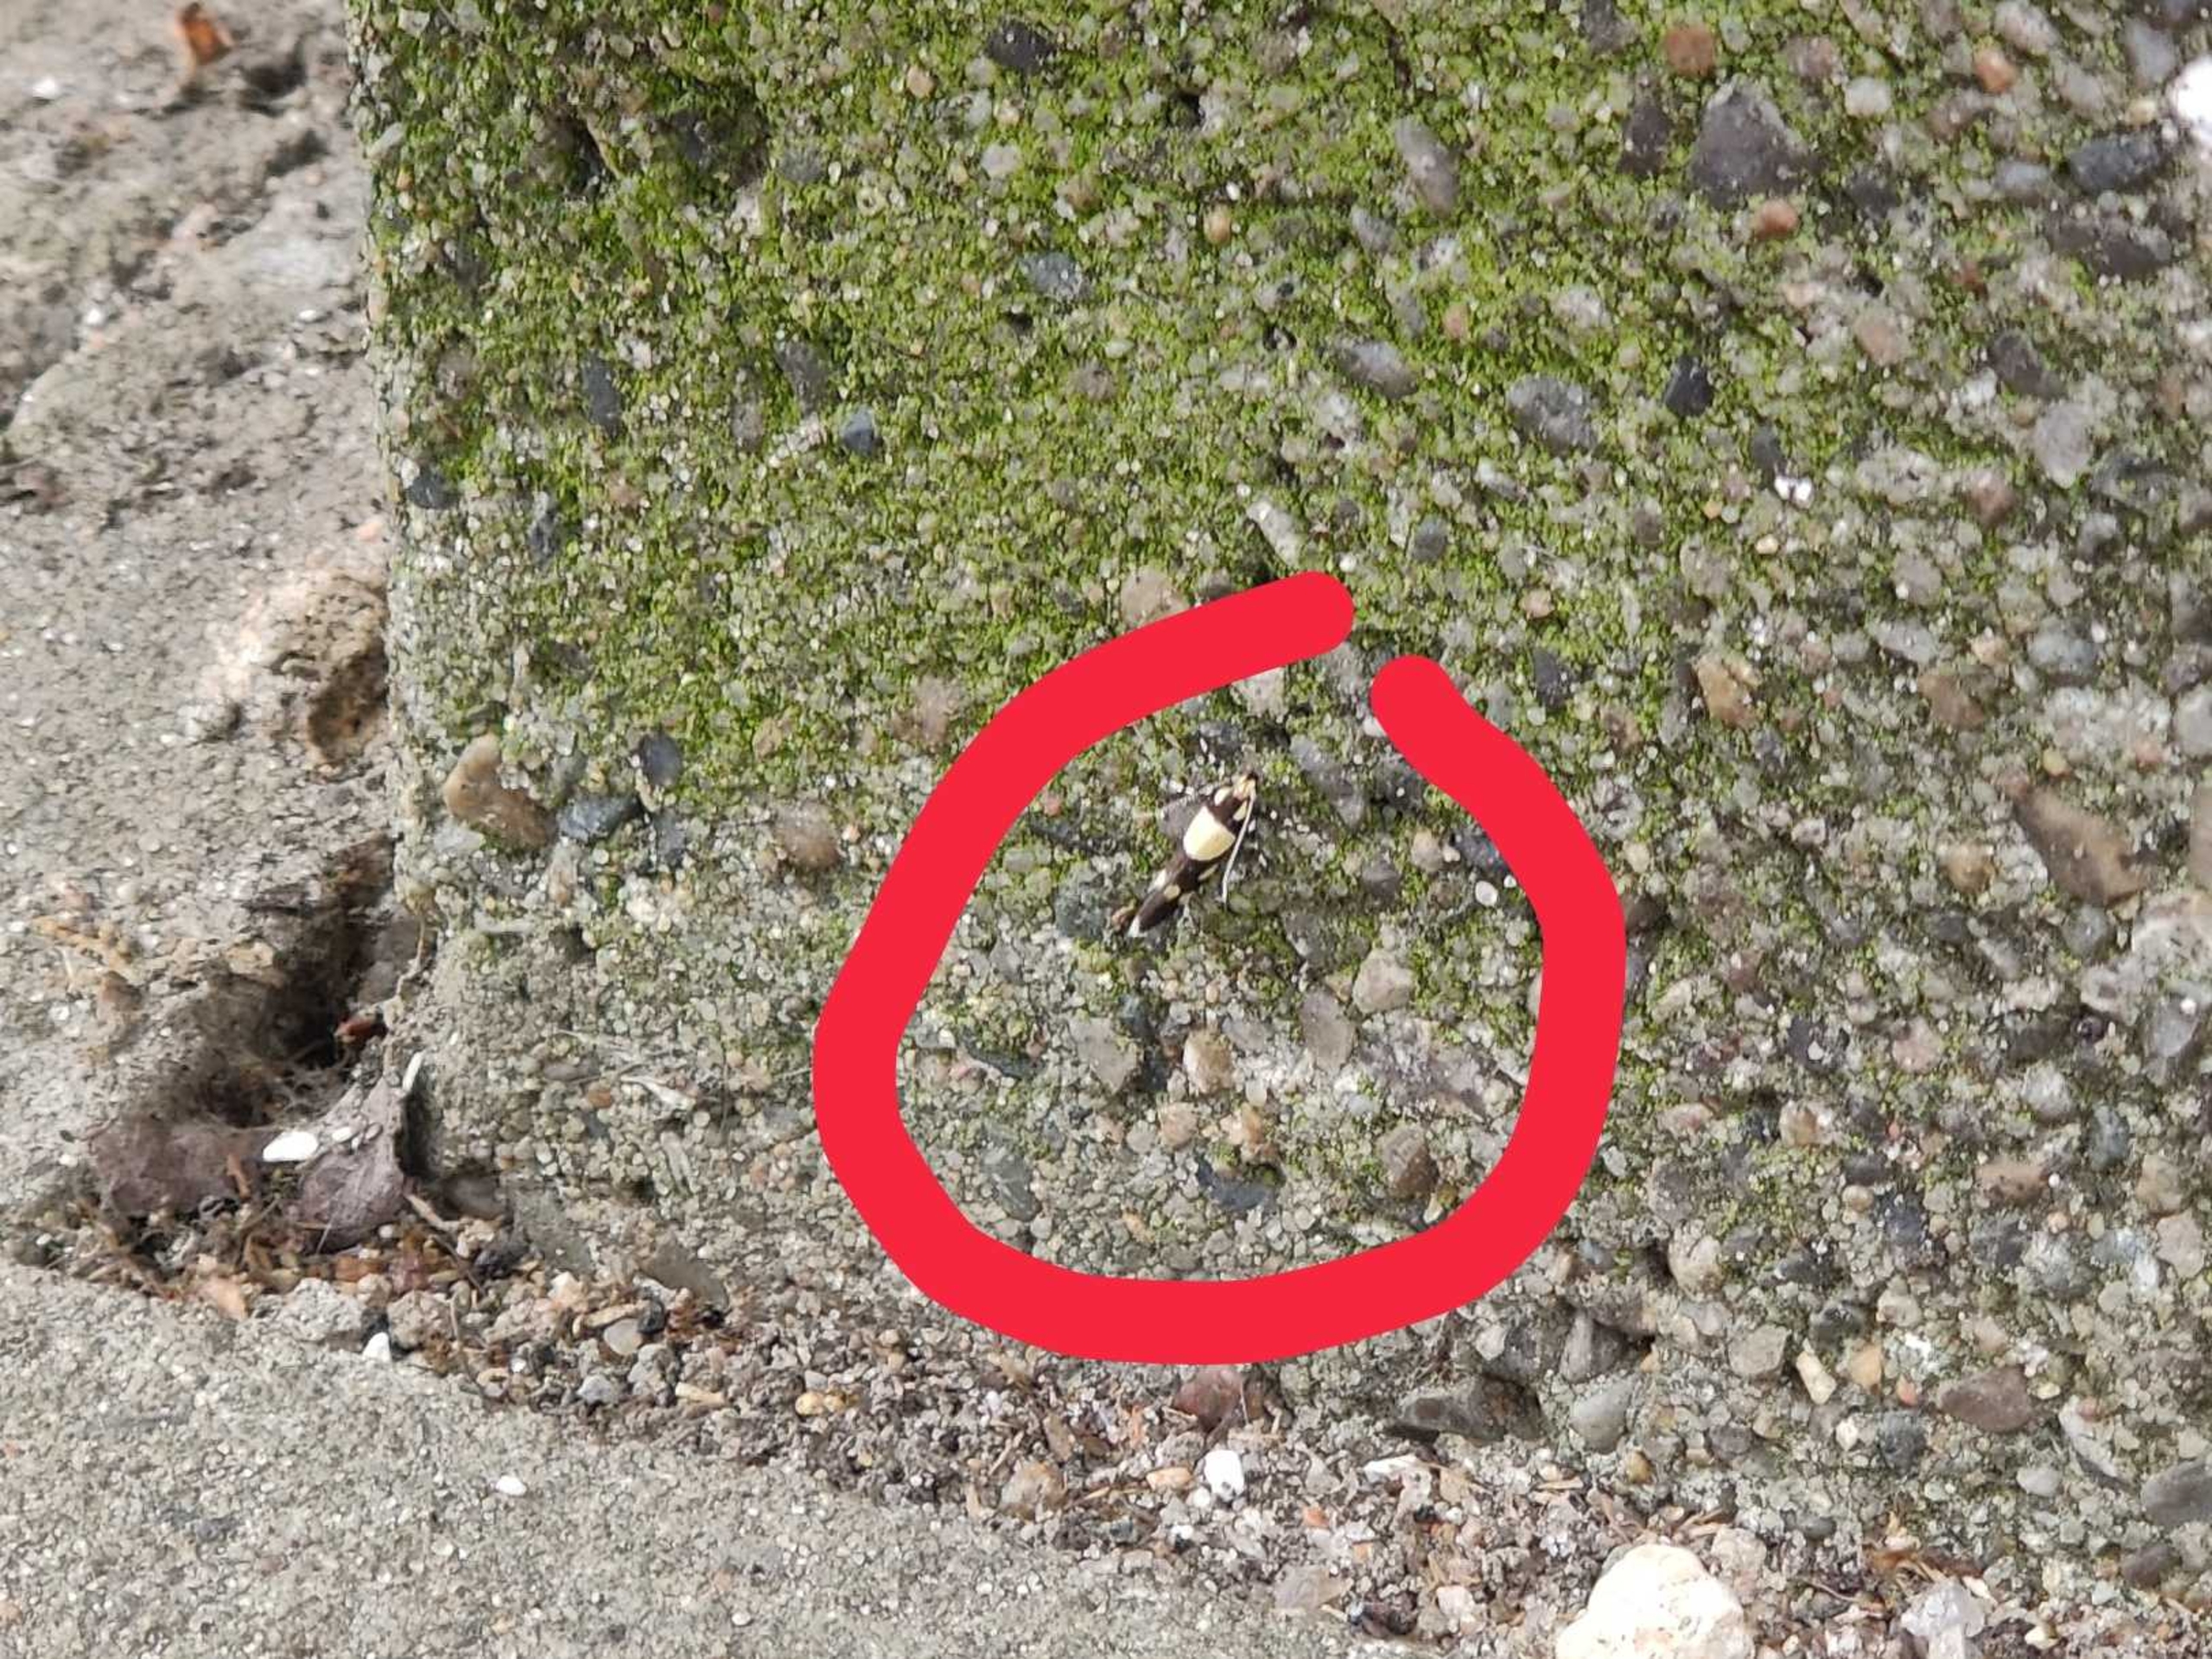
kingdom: Animalia
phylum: Arthropoda
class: Insecta
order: Lepidoptera
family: Oecophoridae
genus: Schiffermuelleria
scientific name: Schiffermuelleria amasiella
